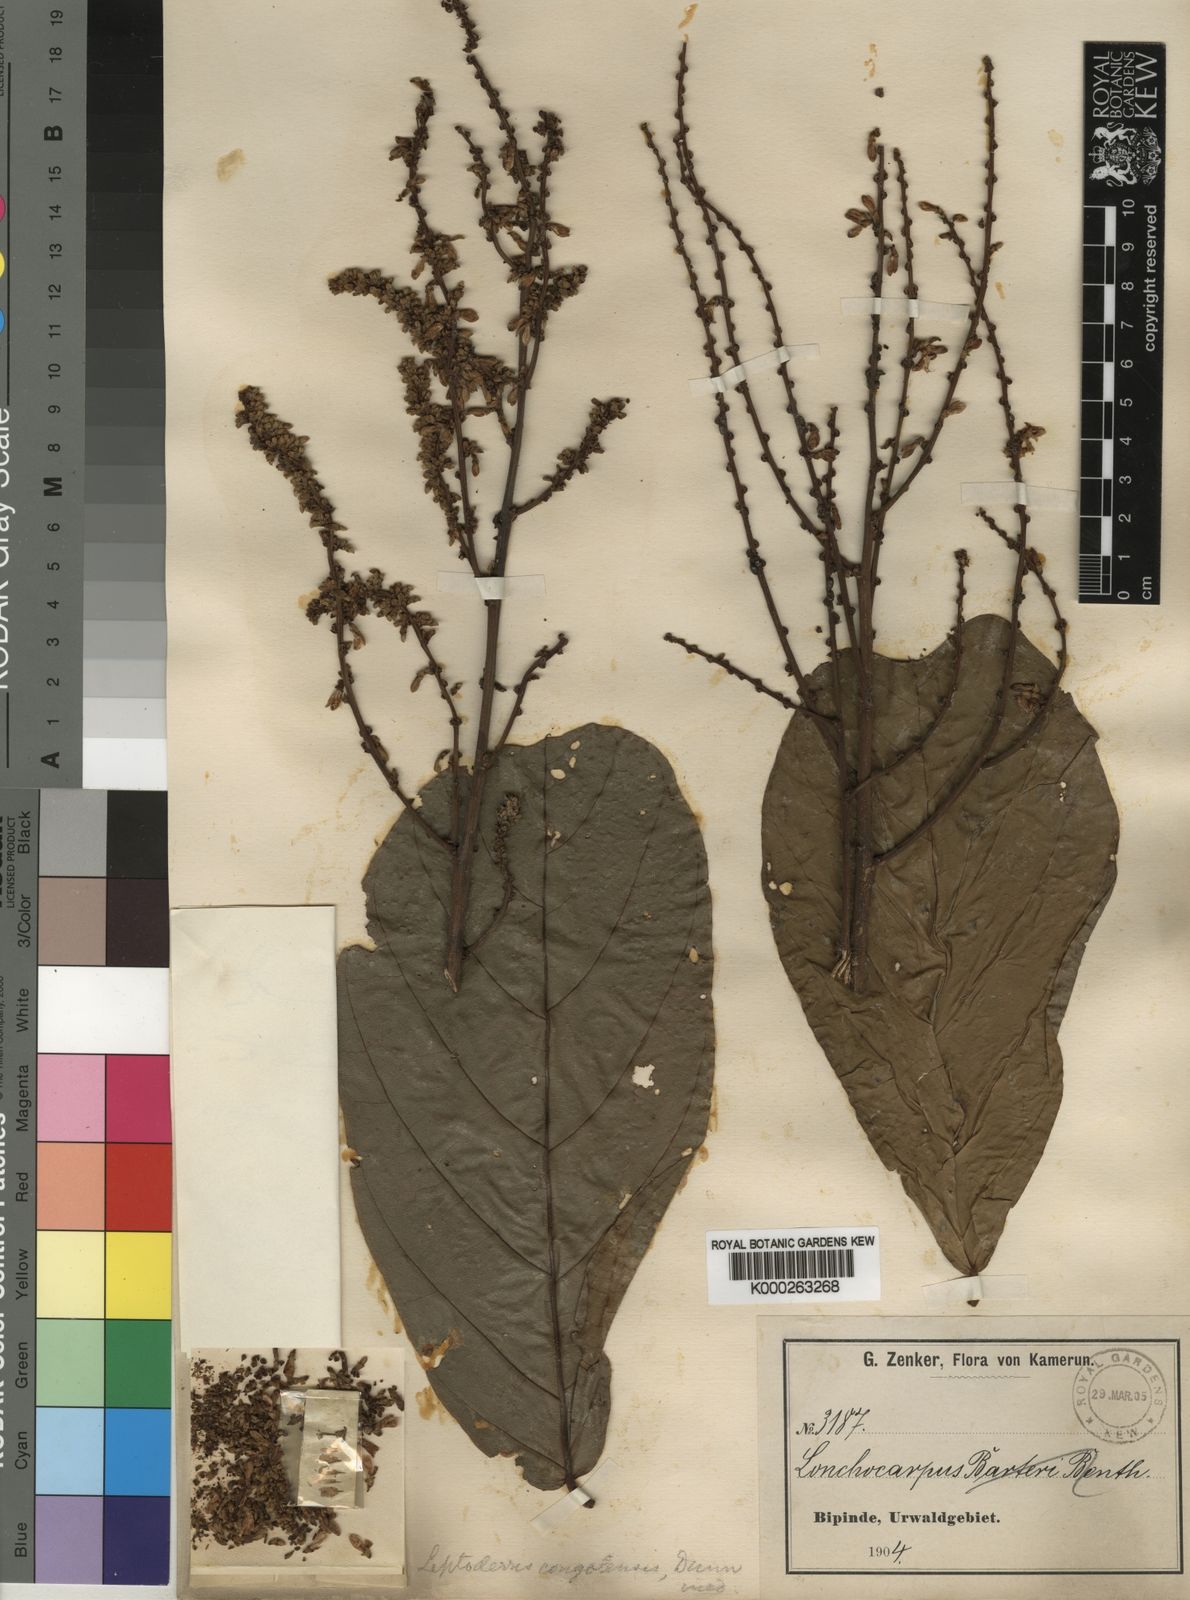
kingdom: Plantae
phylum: Tracheophyta
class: Magnoliopsida
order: Fabales
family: Fabaceae
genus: Leptoderris
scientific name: Leptoderris congolensis
